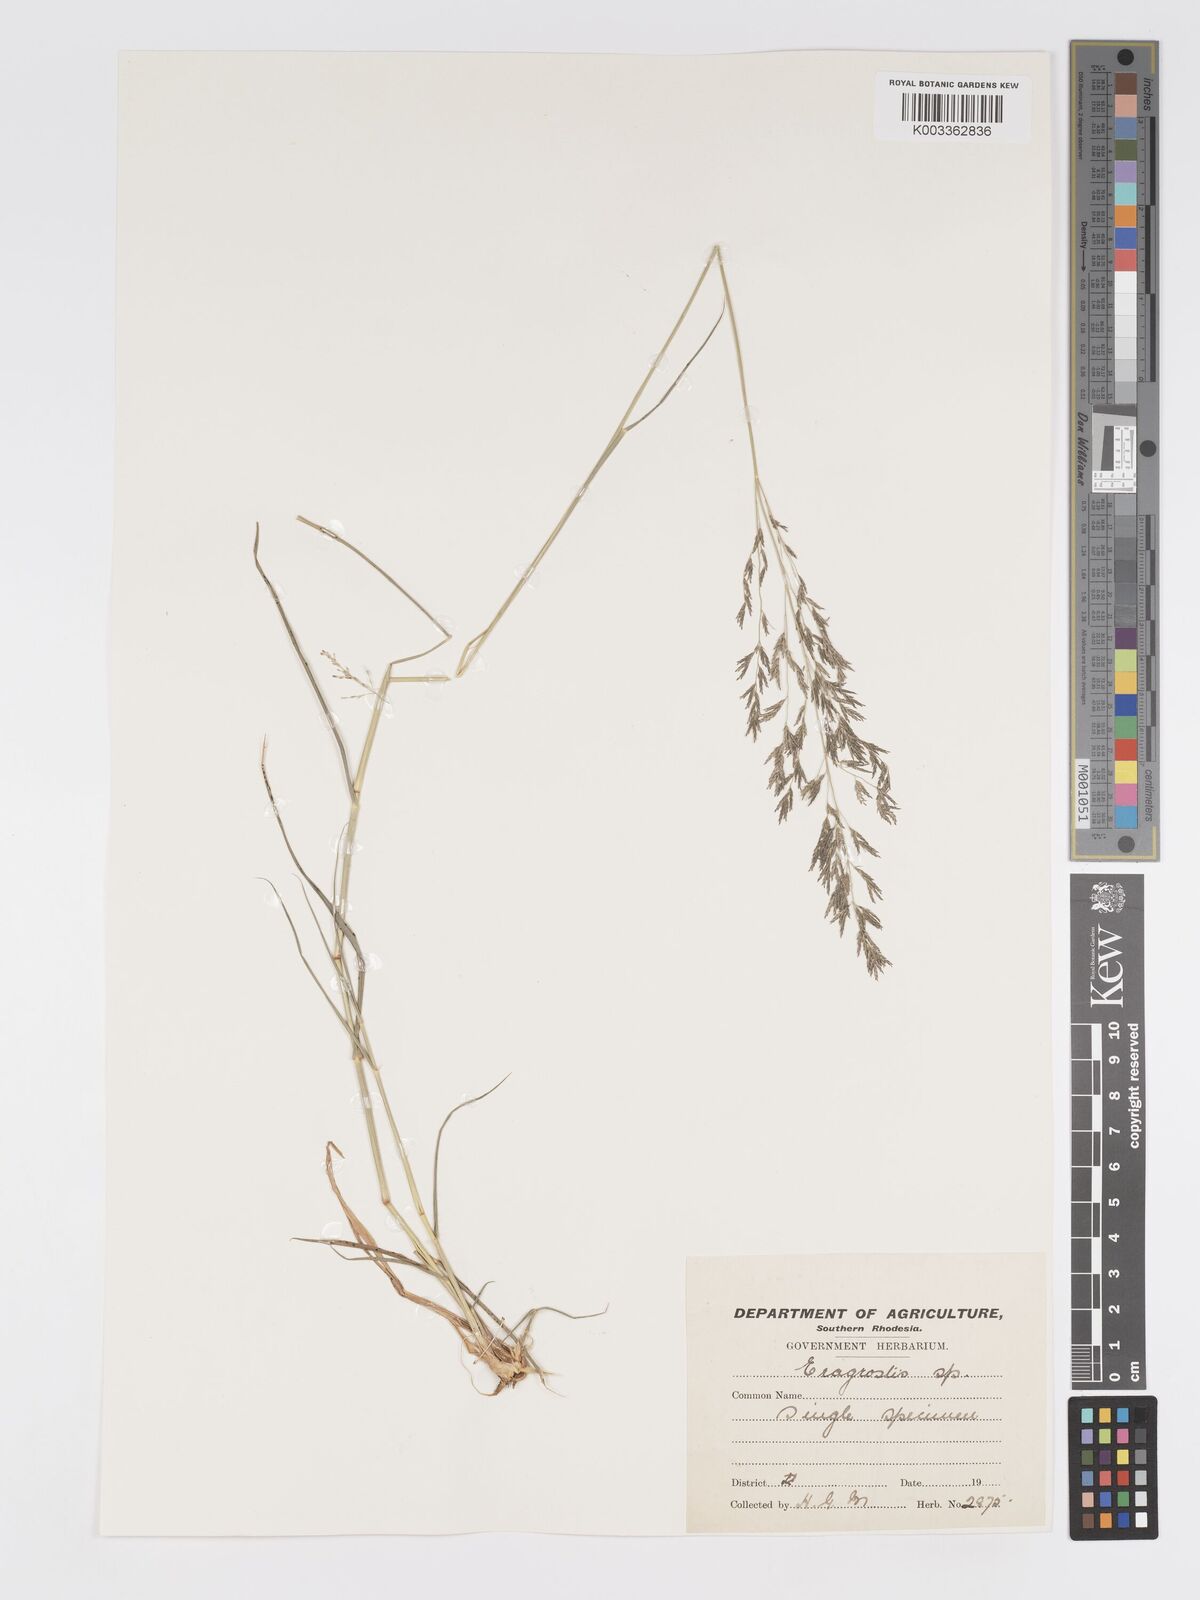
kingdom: Plantae
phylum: Tracheophyta
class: Liliopsida
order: Poales
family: Poaceae
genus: Eragrostis
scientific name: Eragrostis cylindriflora
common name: Cylinderflower lovegrass
